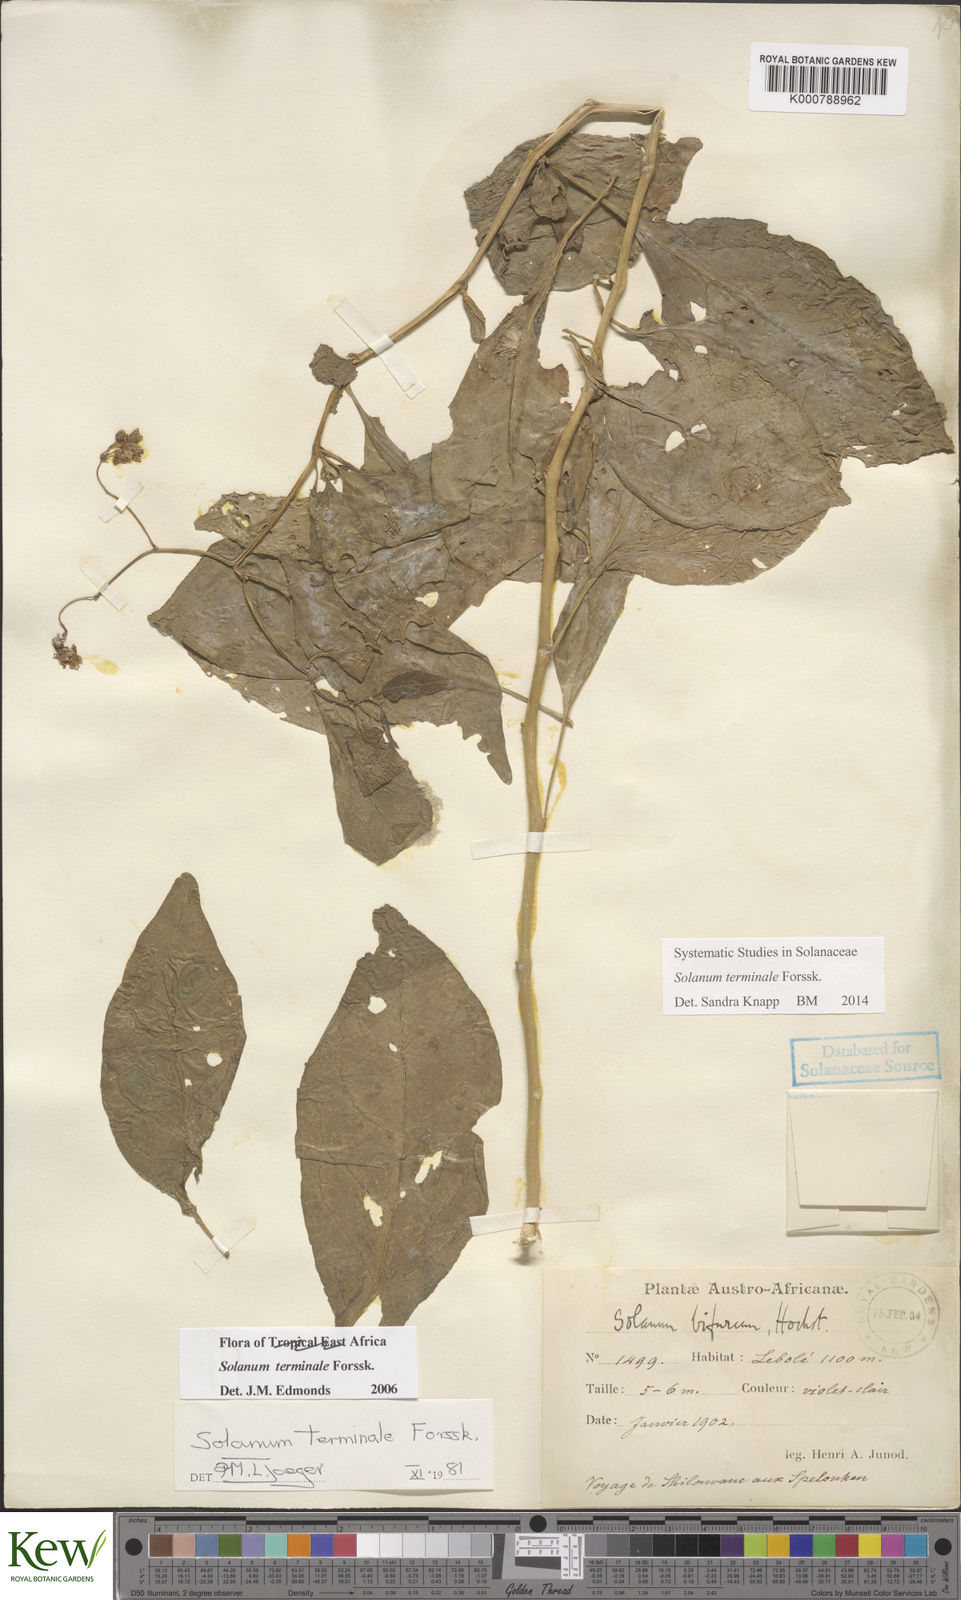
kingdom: Plantae
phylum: Tracheophyta
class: Magnoliopsida
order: Solanales
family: Solanaceae
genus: Solanum
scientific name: Solanum terminale
